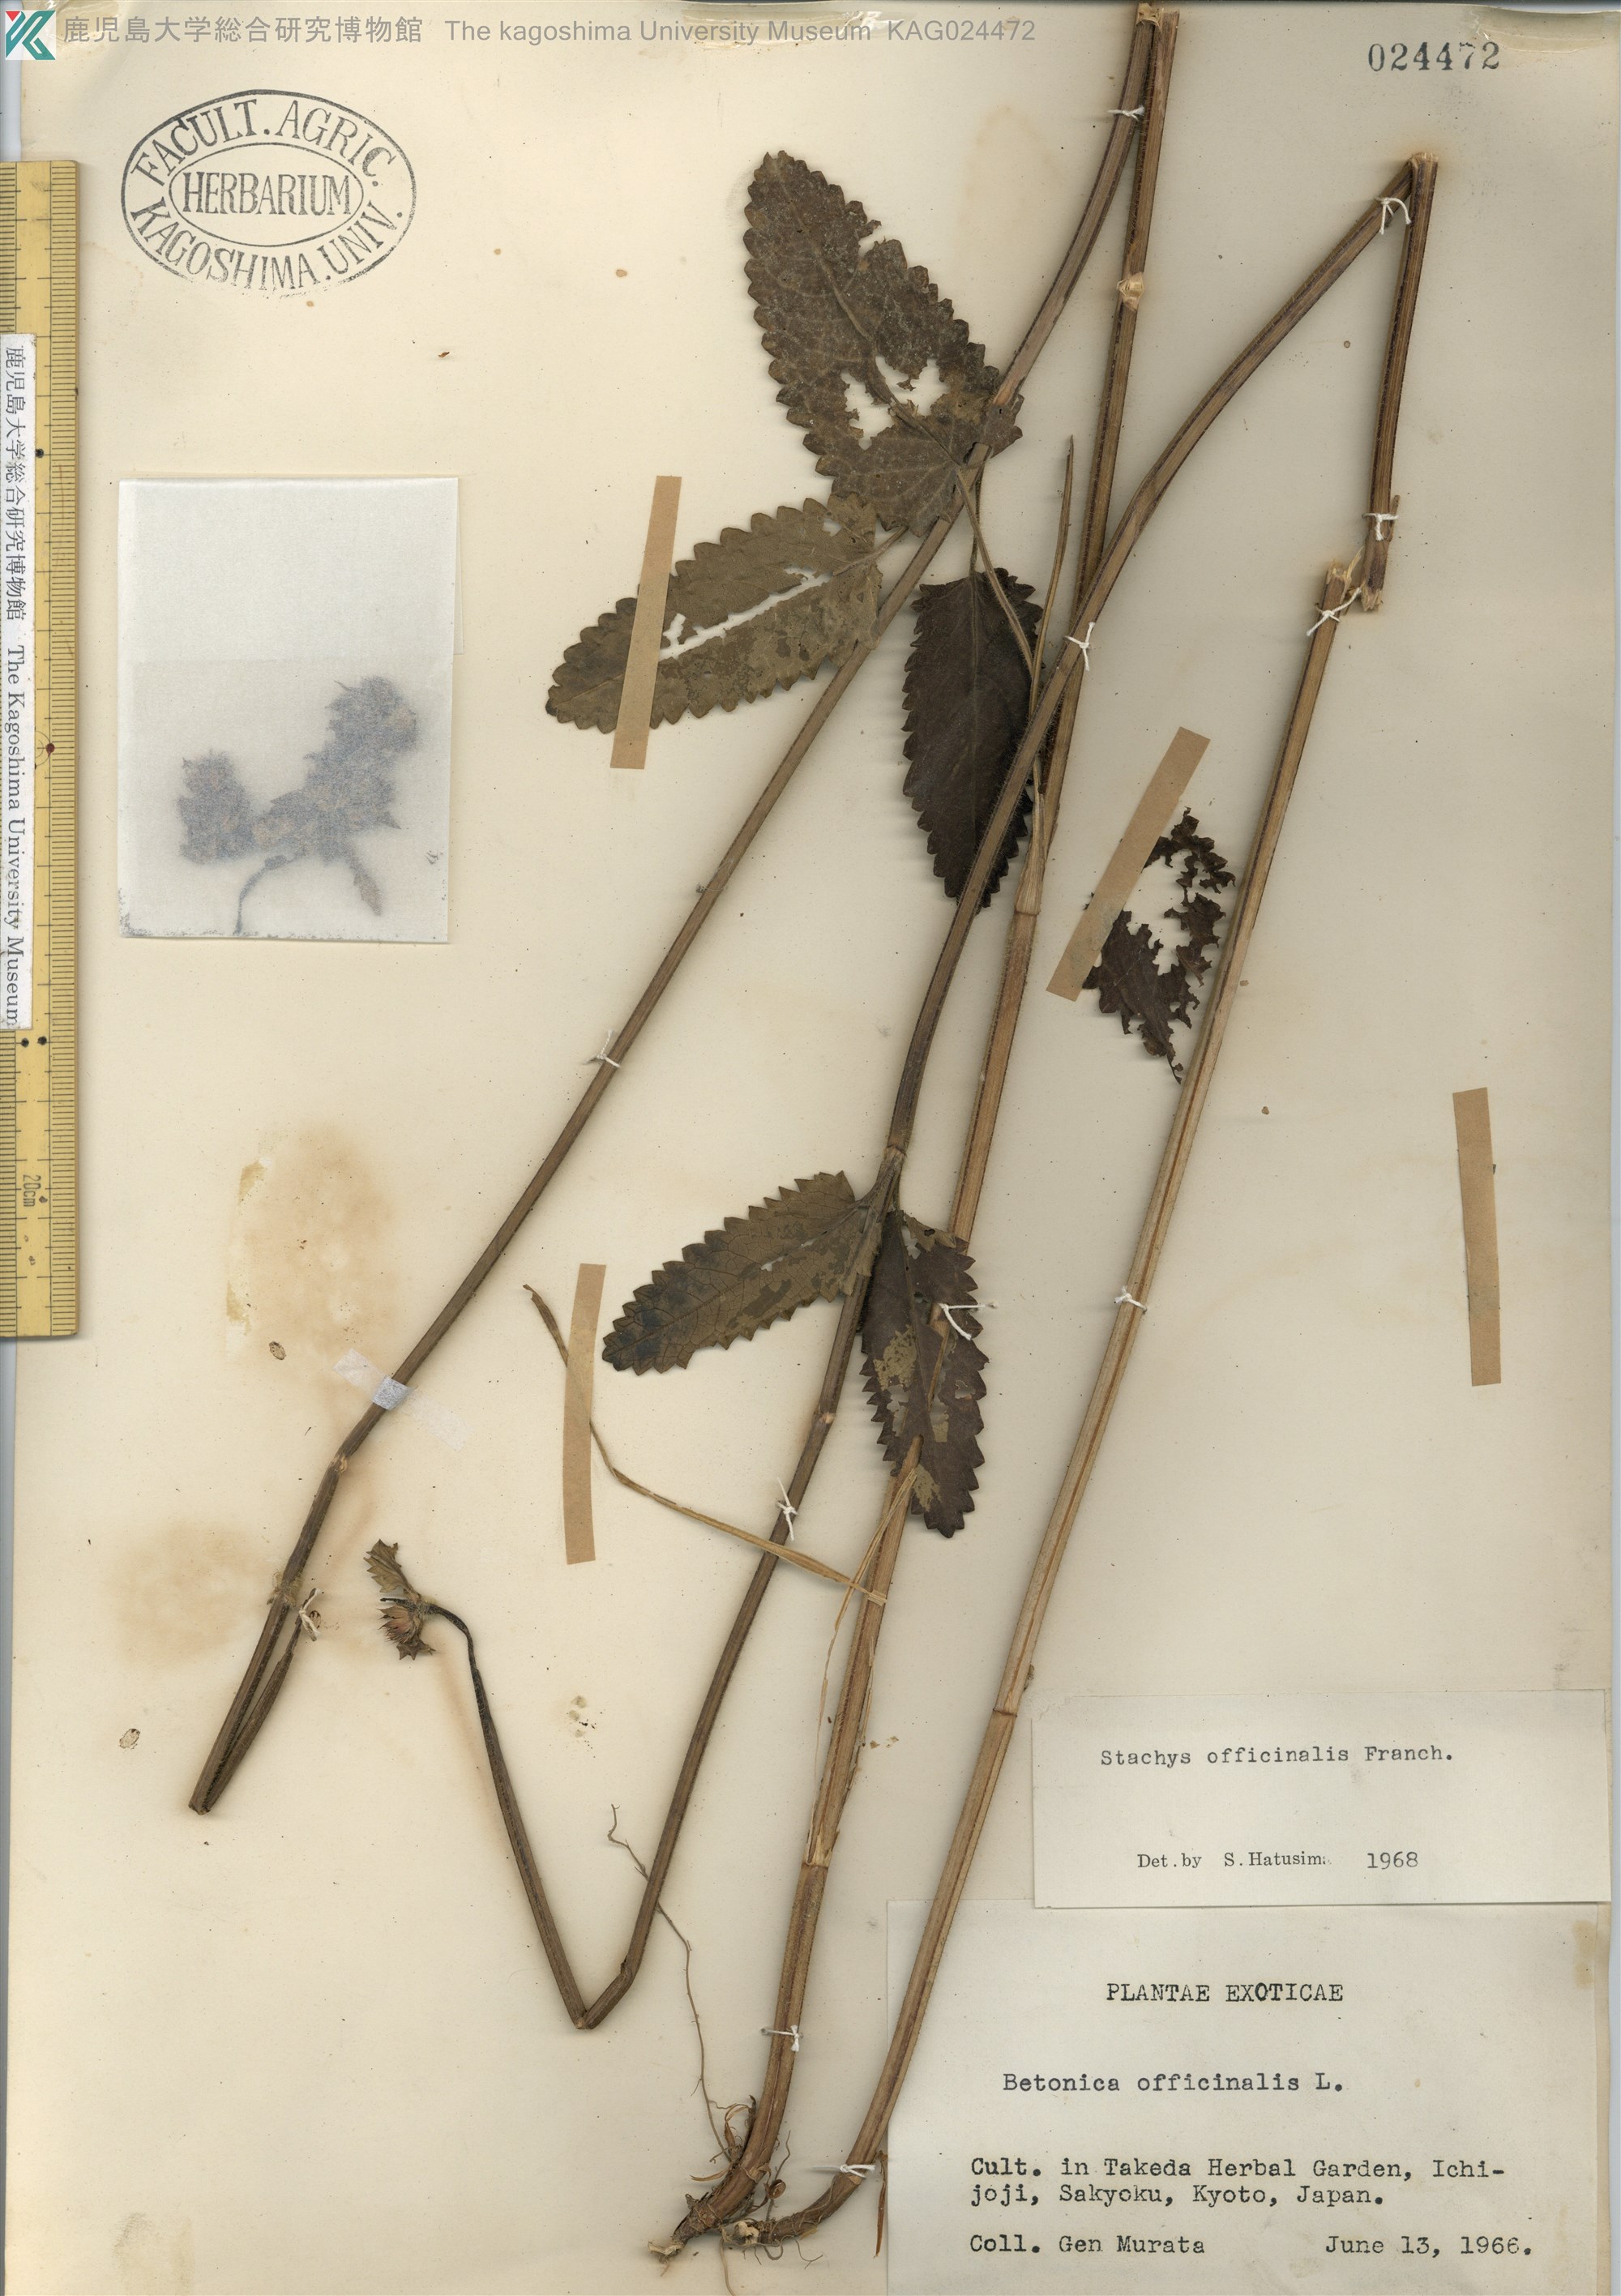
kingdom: Plantae
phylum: Tracheophyta
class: Magnoliopsida
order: Lamiales
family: Lamiaceae
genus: Stachys
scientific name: Stachys officinalis
